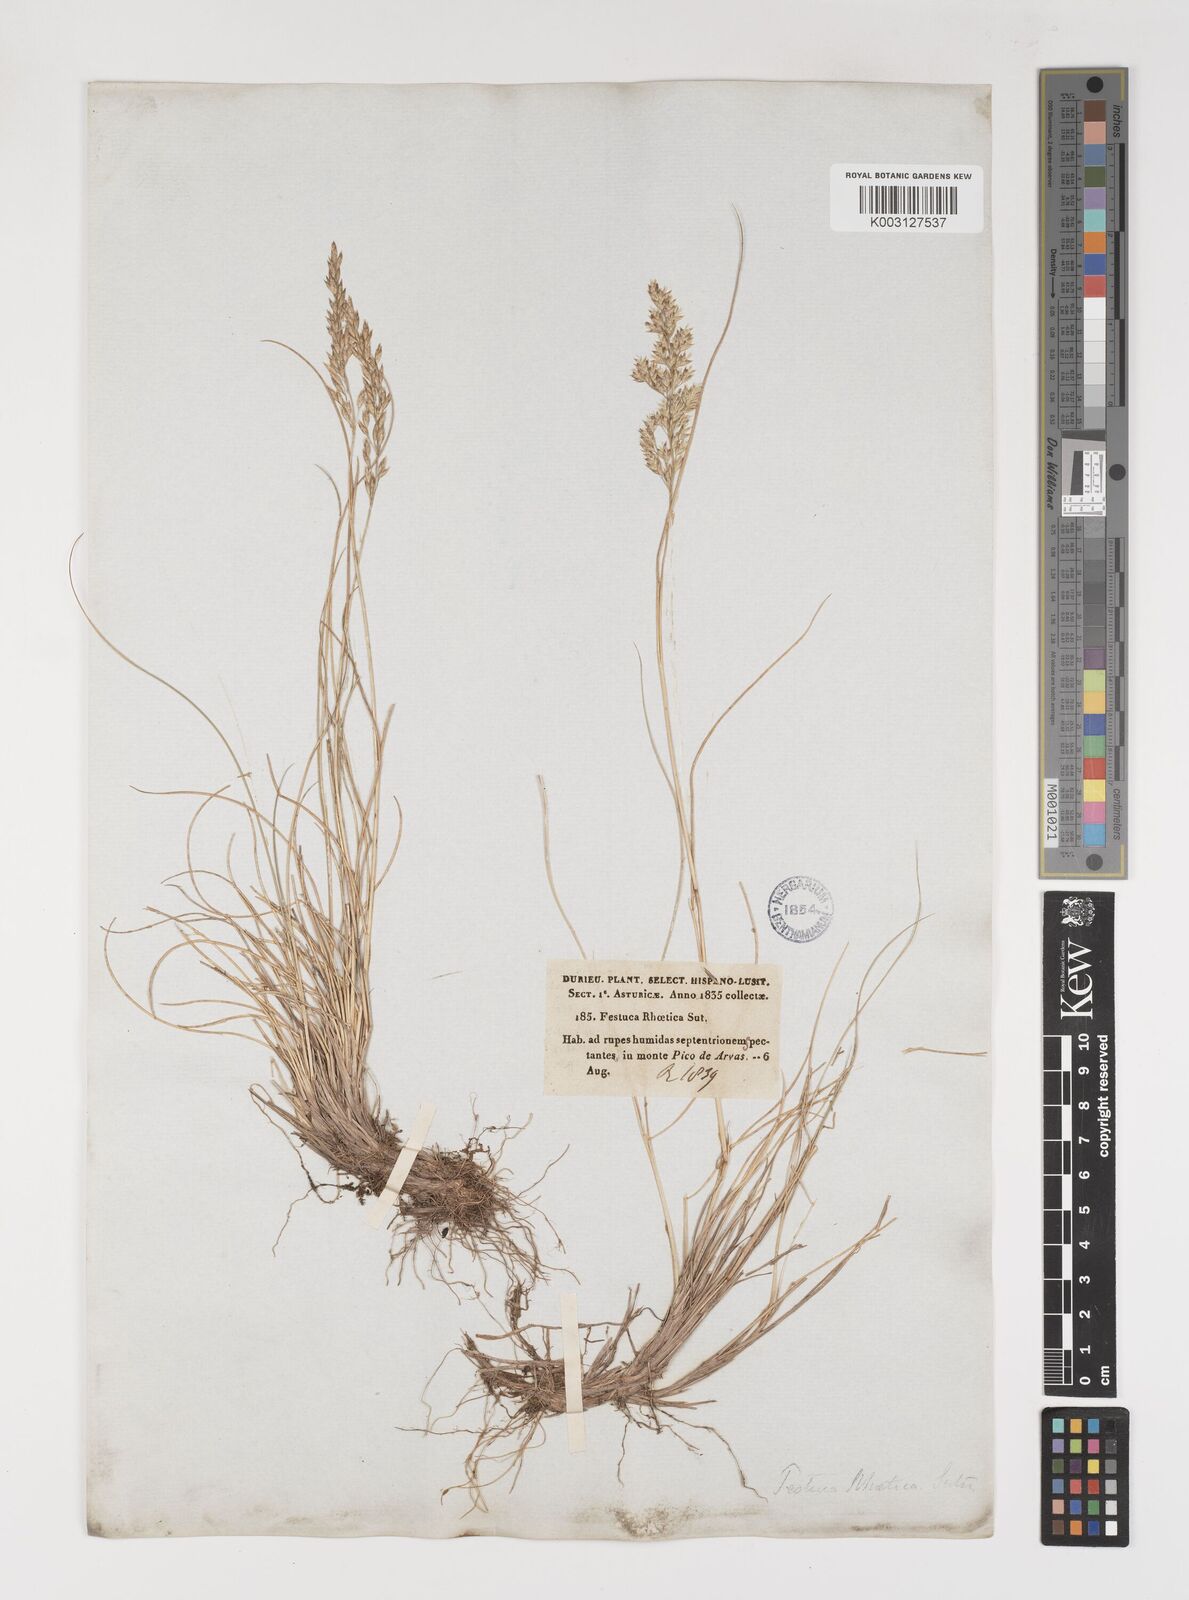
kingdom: Plantae
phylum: Tracheophyta
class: Liliopsida
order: Poales
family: Poaceae
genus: Bellardiochloa
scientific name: Bellardiochloa variegata
